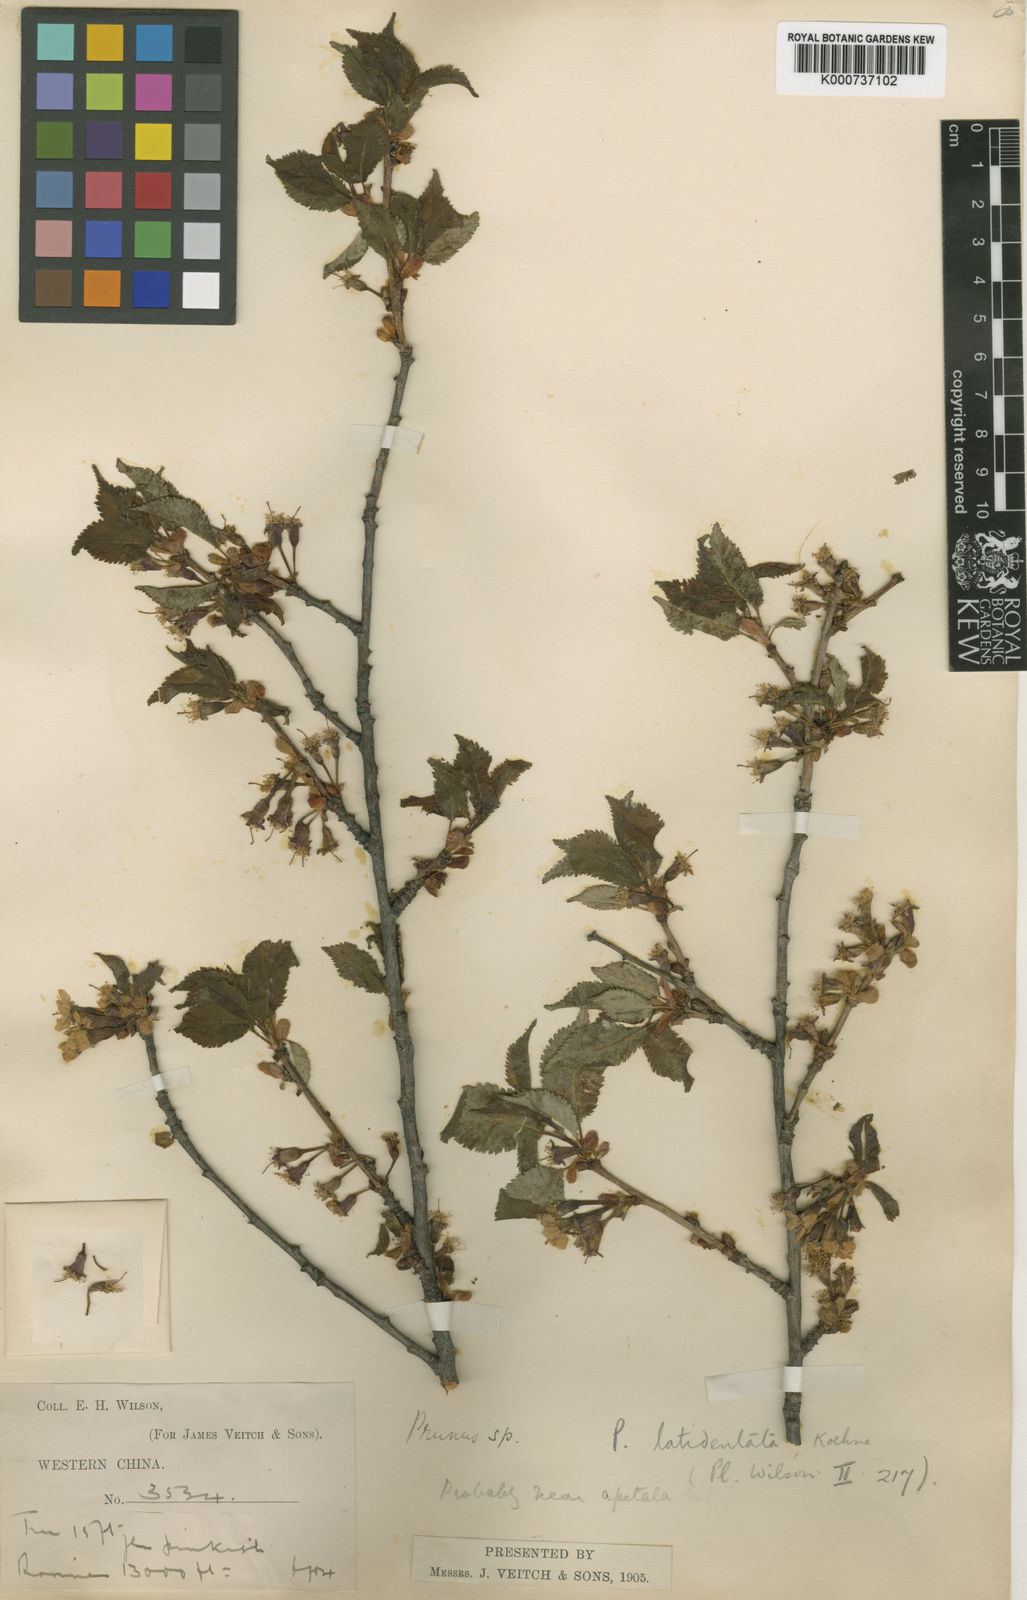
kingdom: Plantae
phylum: Tracheophyta
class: Magnoliopsida
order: Rosales
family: Rosaceae
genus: Prunus
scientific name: Prunus trichostoma
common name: Ribbed cherry
